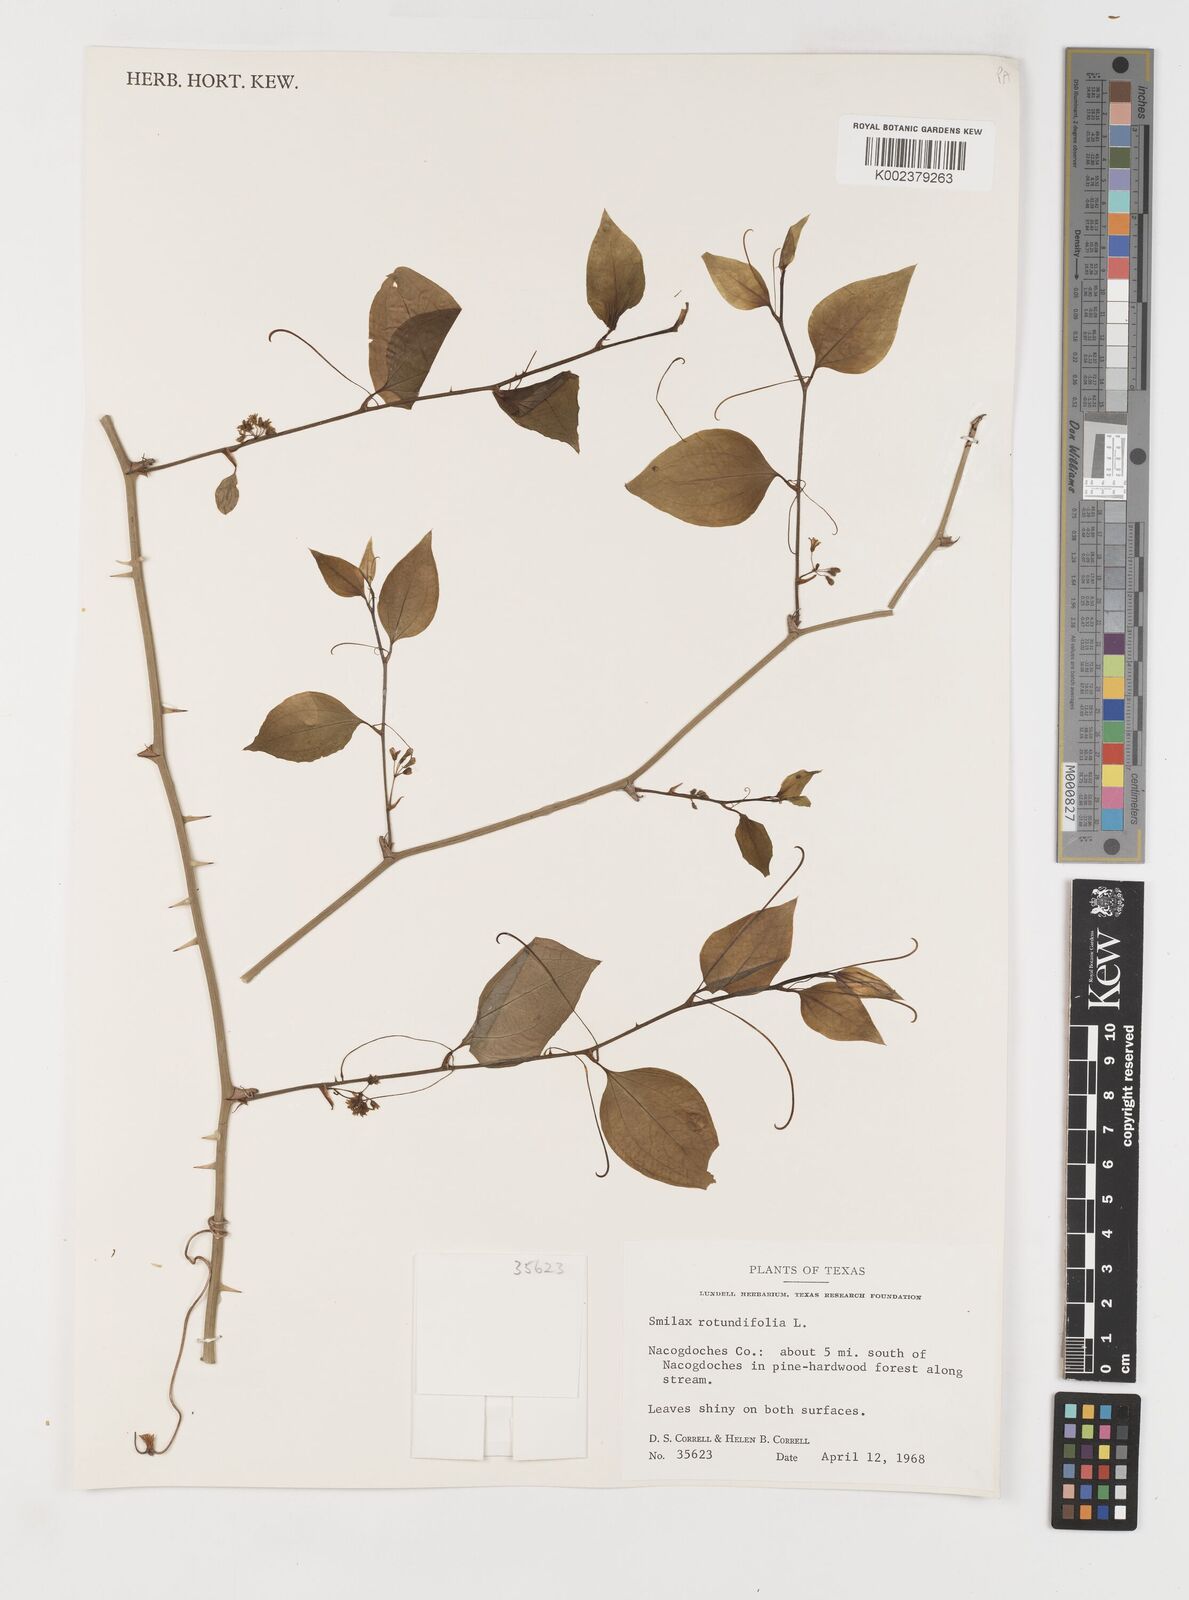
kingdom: Plantae
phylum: Tracheophyta
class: Liliopsida
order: Liliales
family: Smilacaceae
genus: Smilax
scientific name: Smilax rotundifolia
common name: Bullbriar
